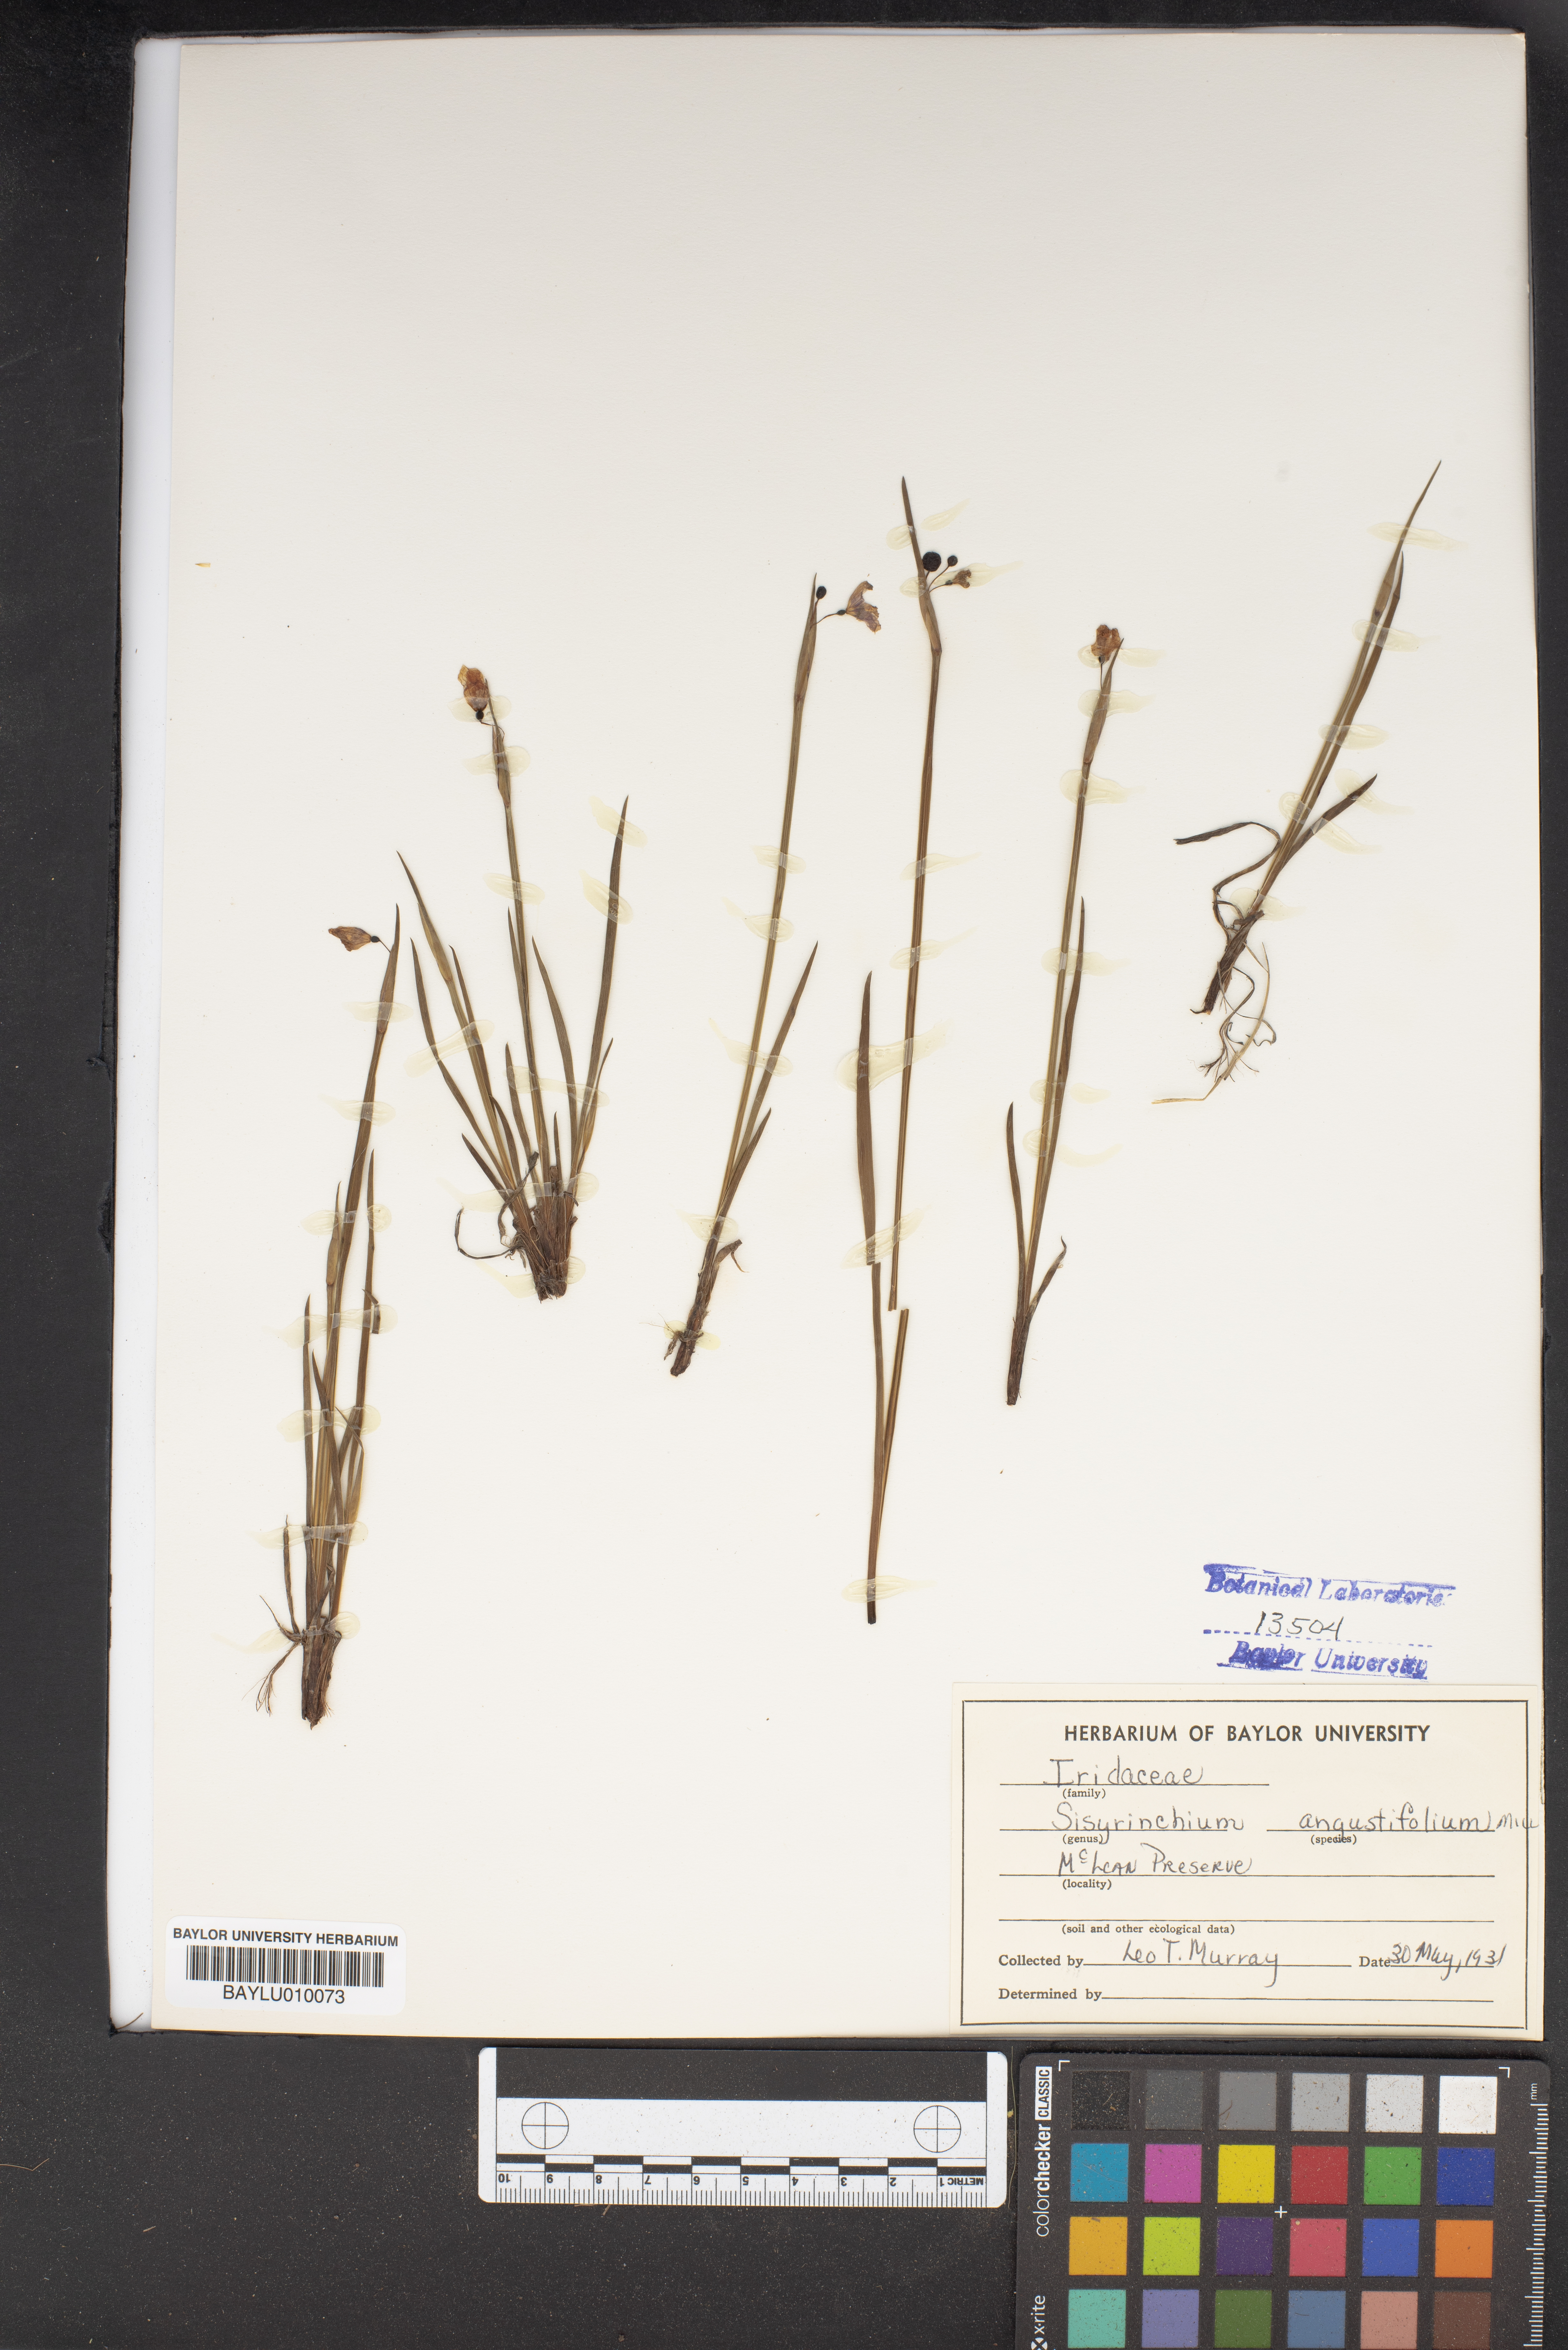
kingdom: Plantae
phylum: Tracheophyta
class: Liliopsida
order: Asparagales
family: Iridaceae
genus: Sisyrinchium
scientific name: Sisyrinchium angustifolium
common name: Narrow-leaf blue-eyed-grass
